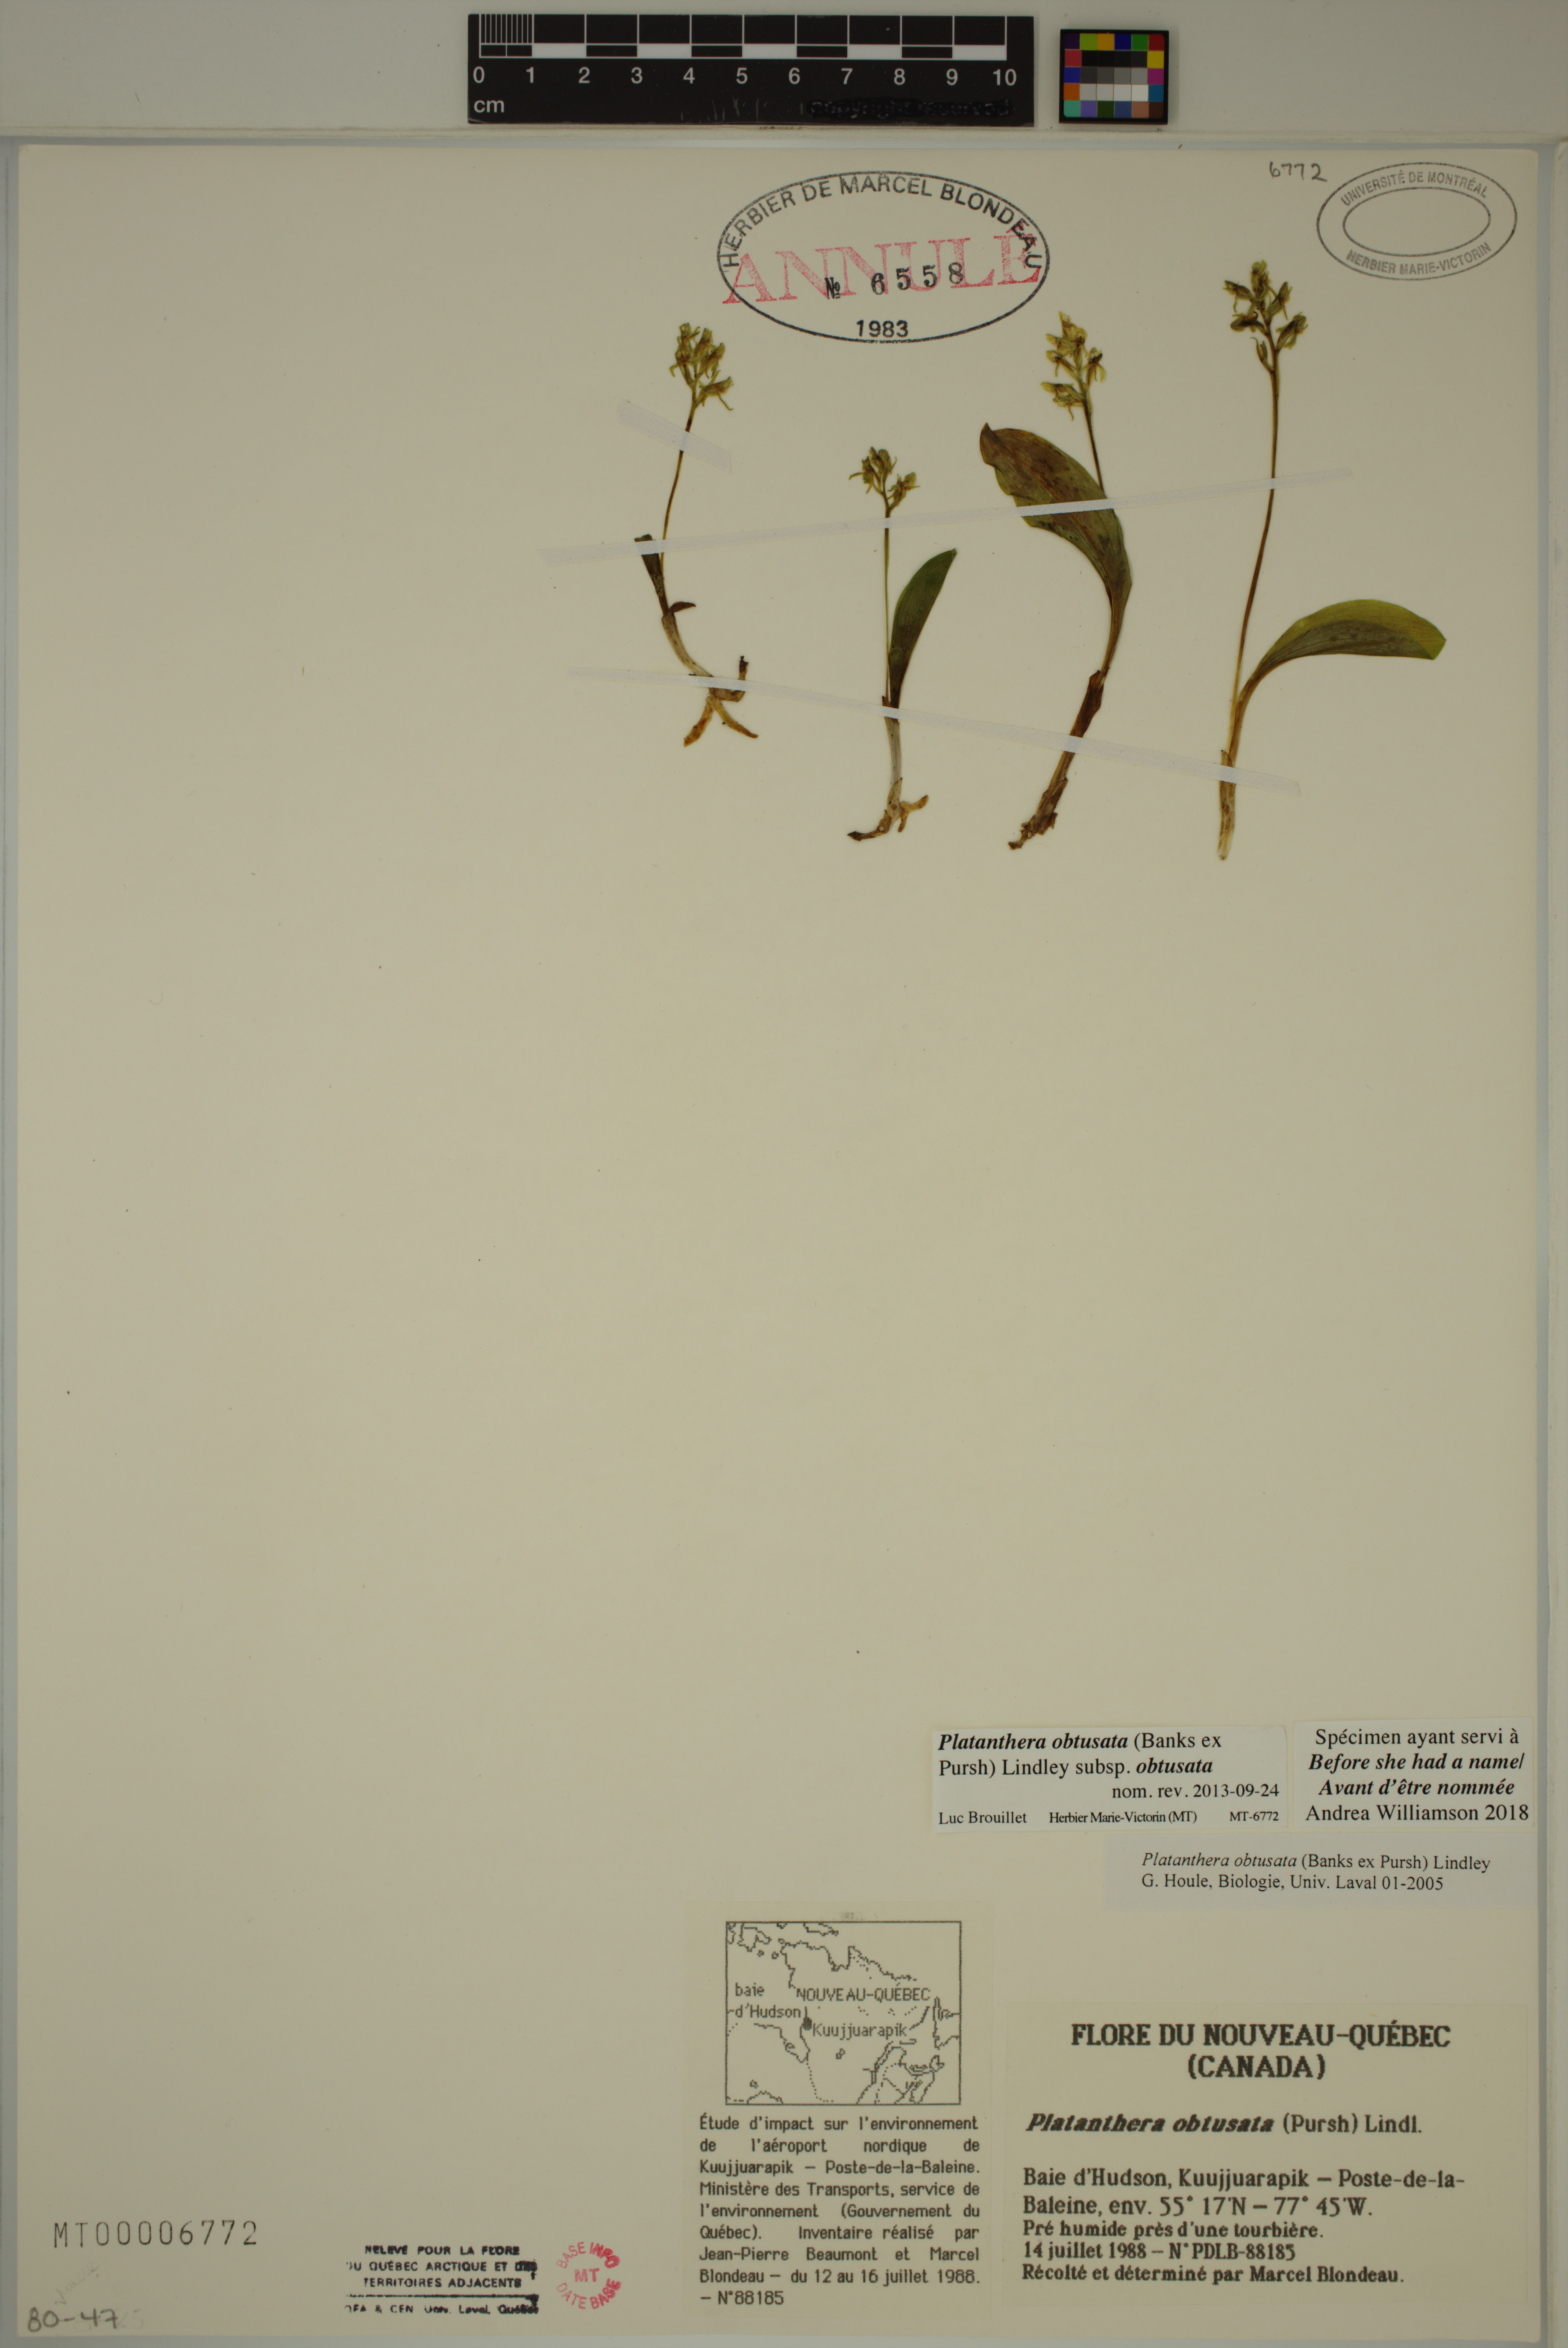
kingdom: Plantae
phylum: Tracheophyta
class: Liliopsida
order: Asparagales
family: Orchidaceae
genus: Platanthera
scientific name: Platanthera obtusata
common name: Blunt bog orchid
